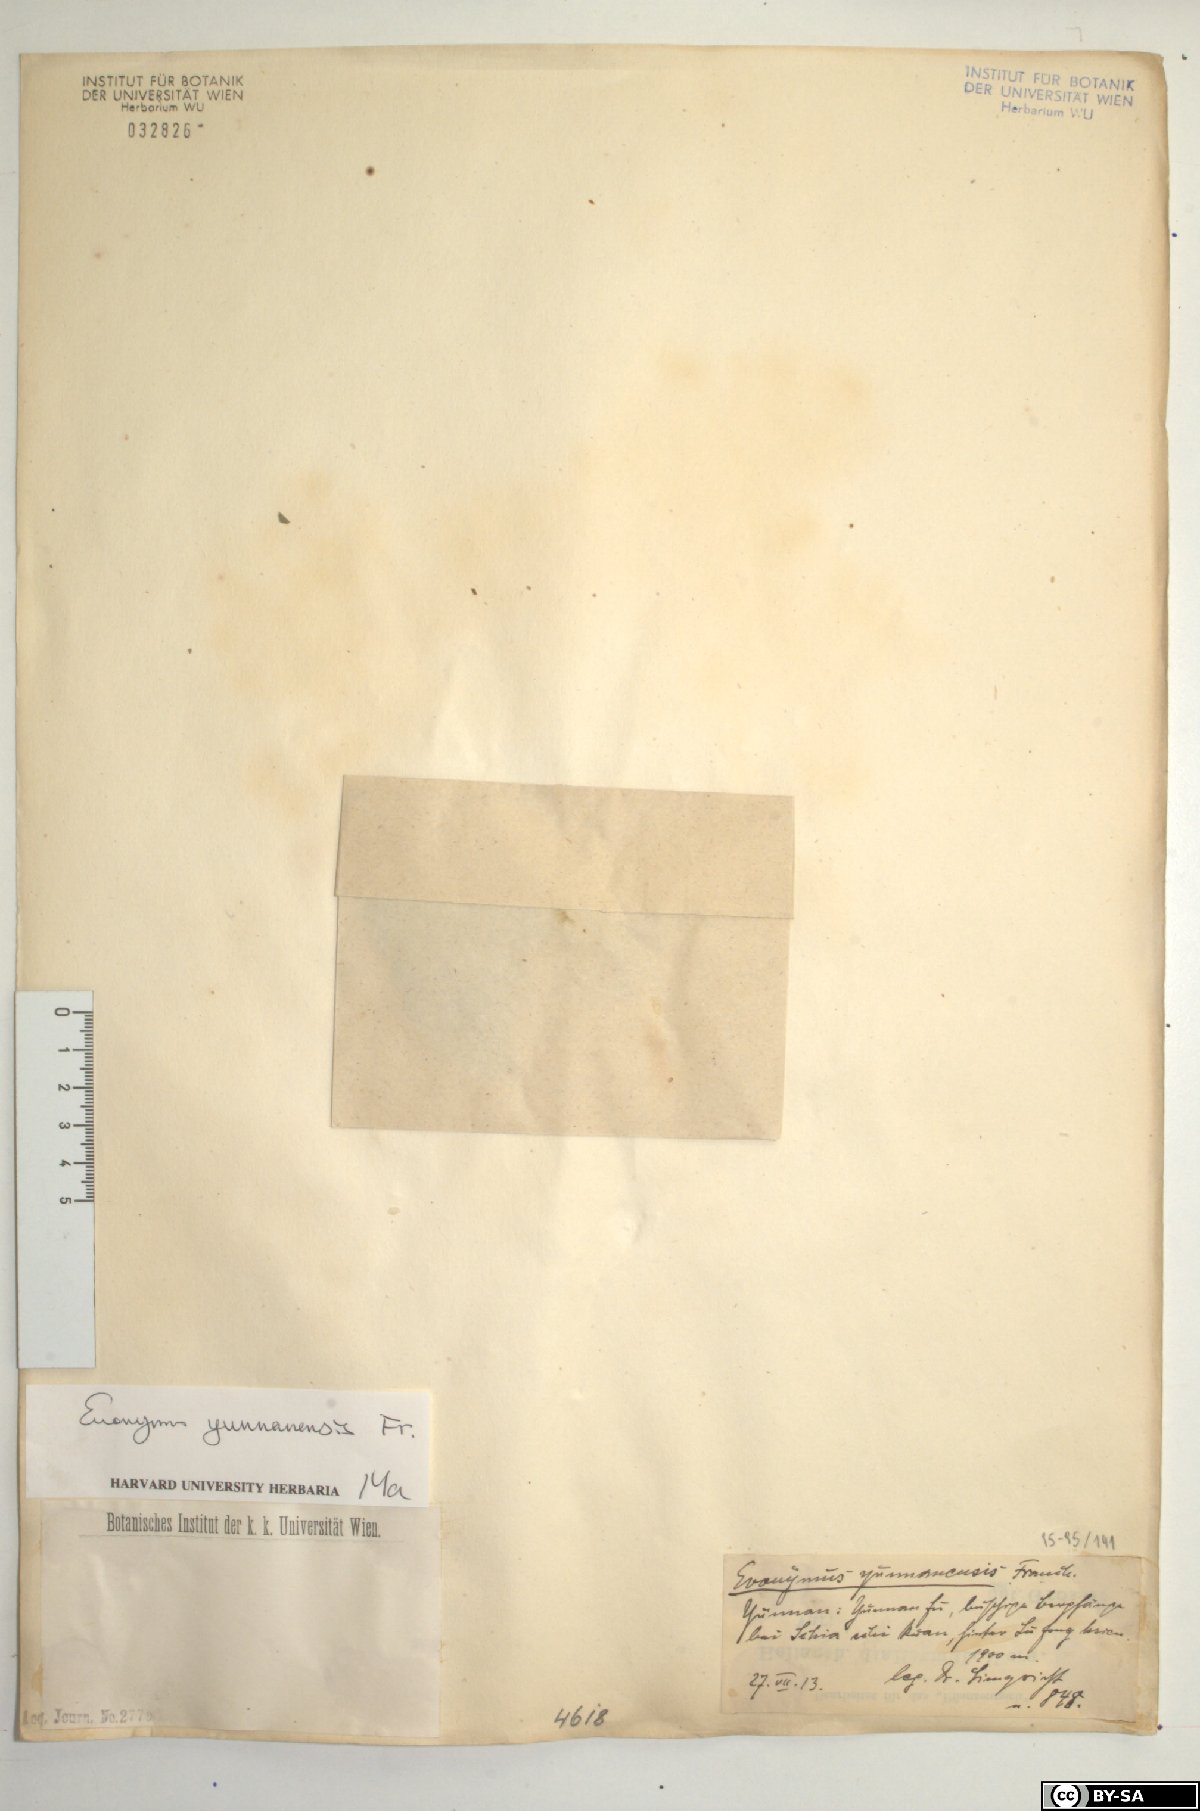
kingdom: Plantae
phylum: Tracheophyta
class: Magnoliopsida
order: Celastrales
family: Celastraceae
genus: Euonymus
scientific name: Euonymus yunnanensis
